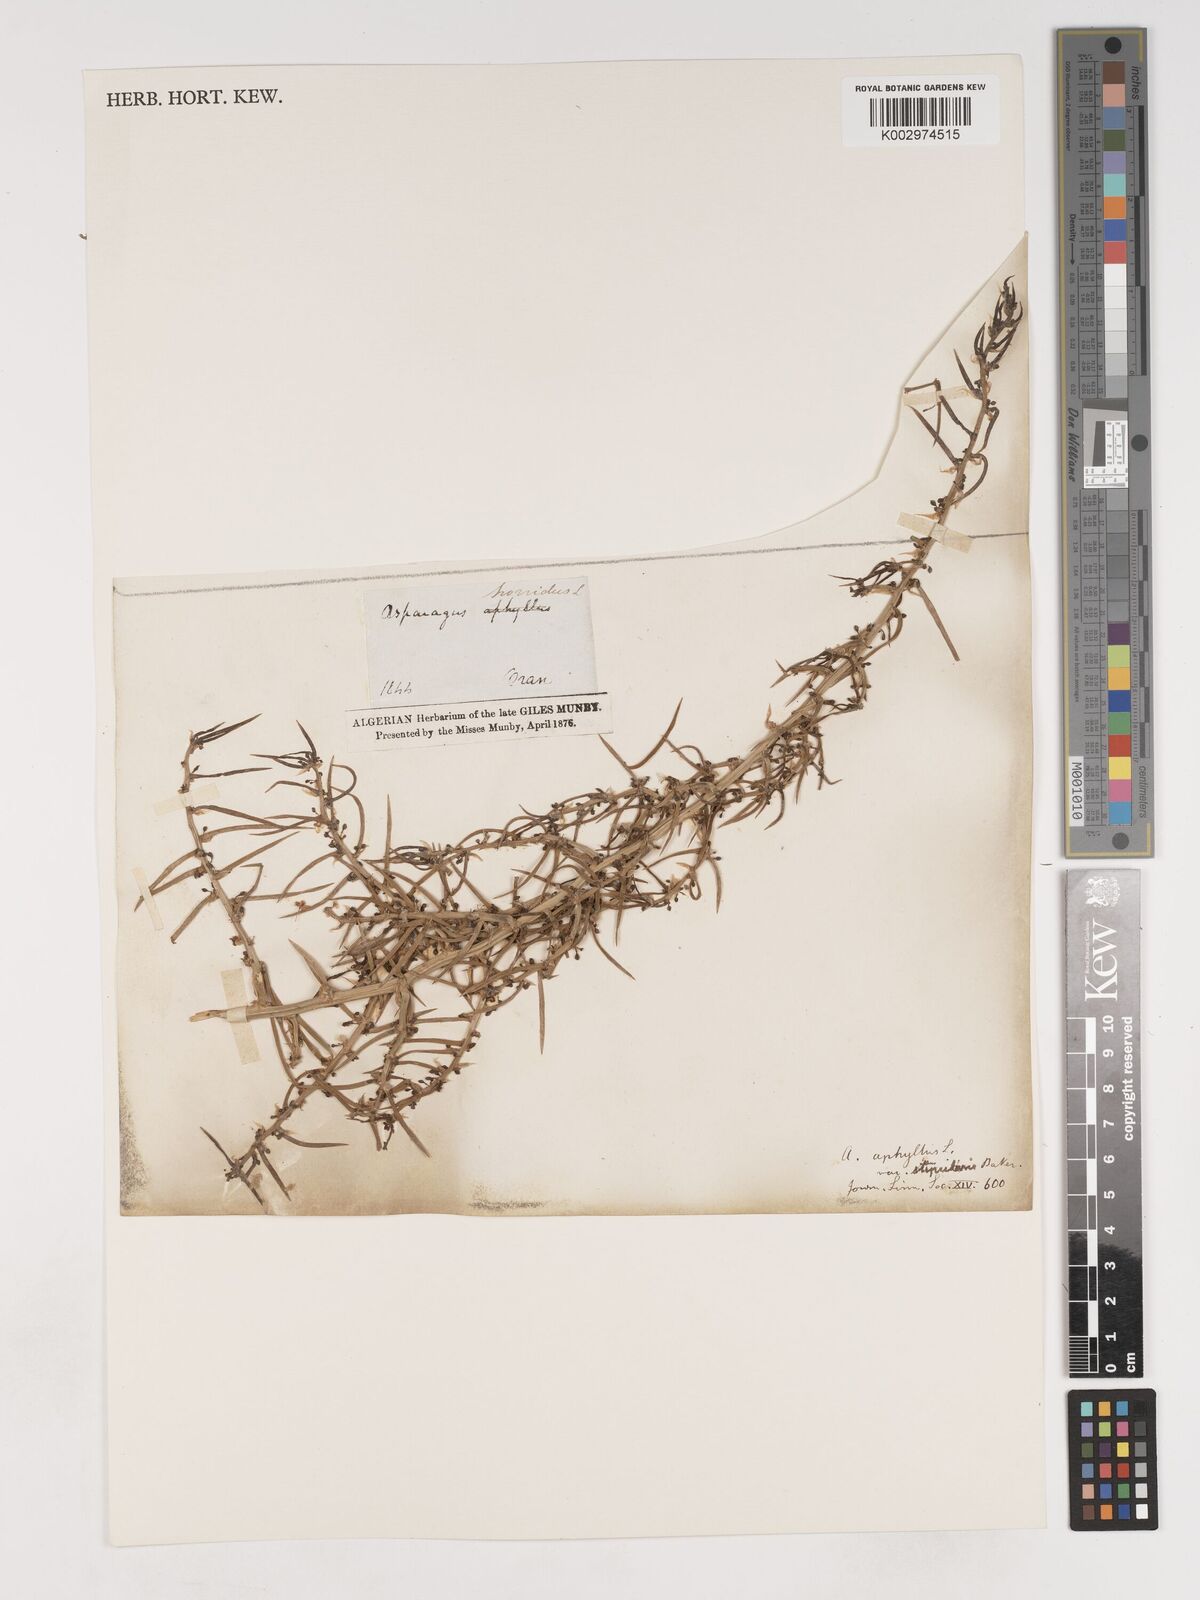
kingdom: Plantae
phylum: Tracheophyta
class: Liliopsida
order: Asparagales
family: Asparagaceae
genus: Asparagus
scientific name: Asparagus horridus
